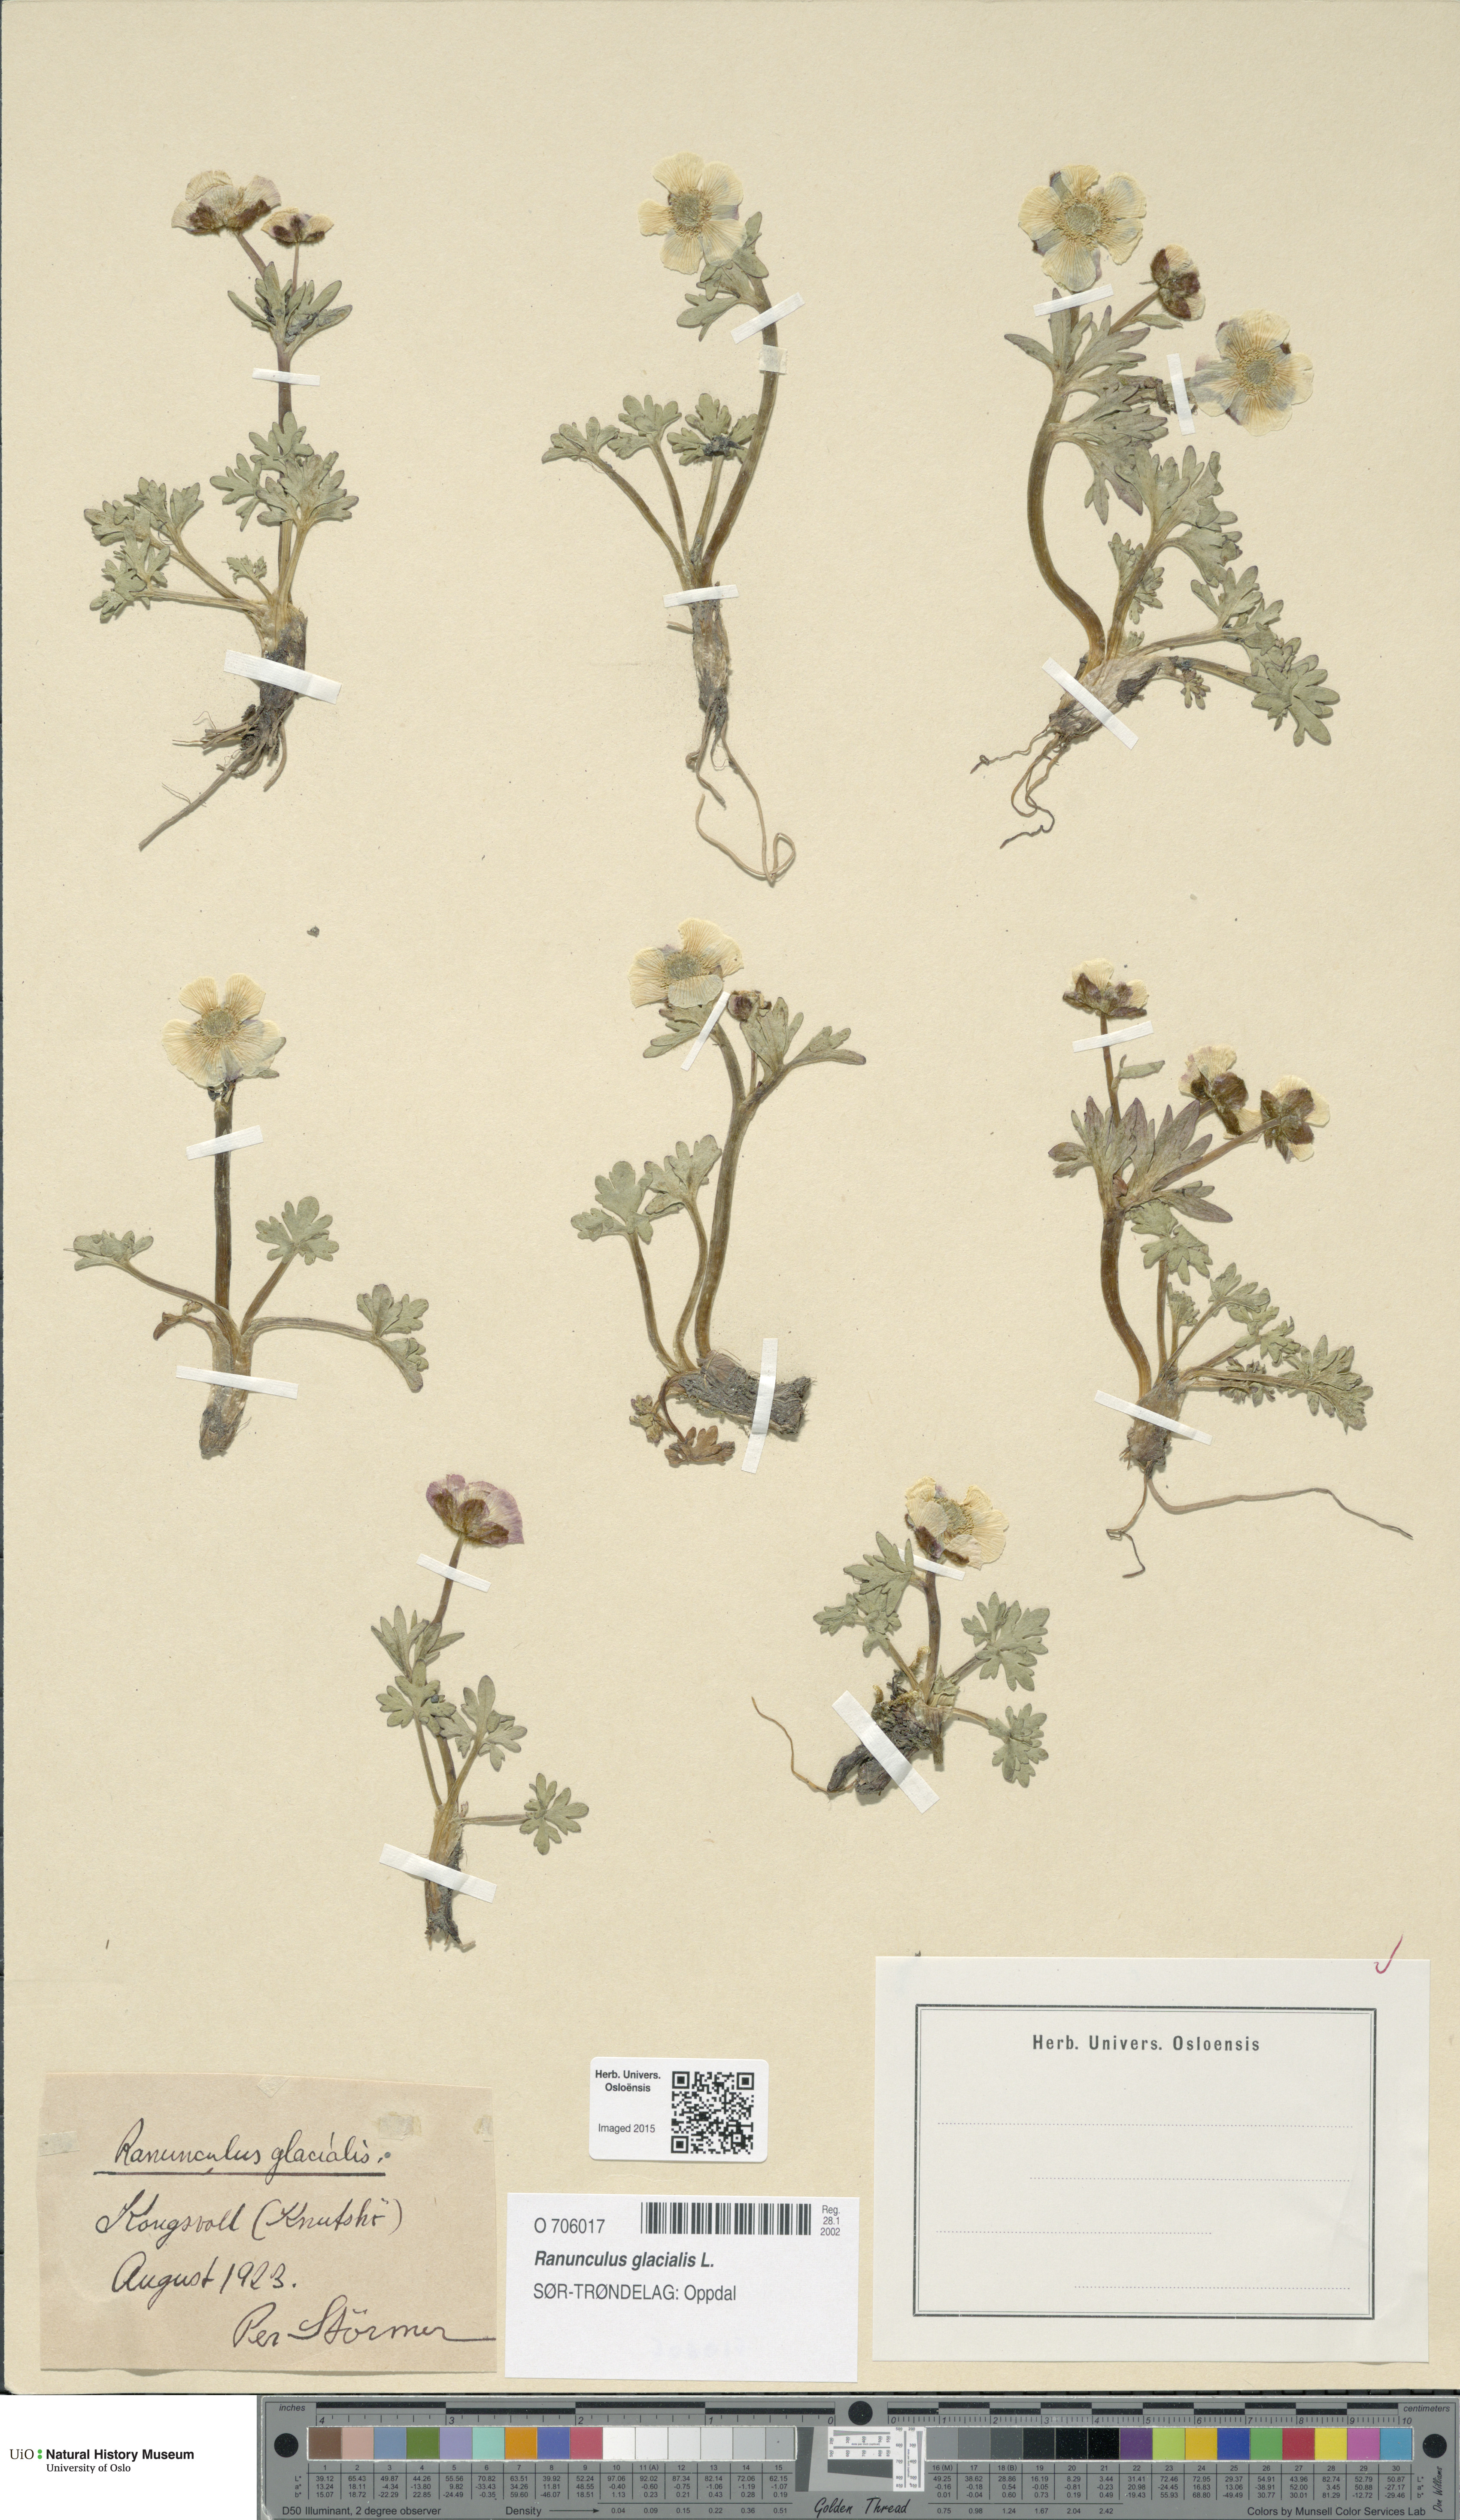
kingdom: Plantae
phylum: Tracheophyta
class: Magnoliopsida
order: Ranunculales
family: Ranunculaceae
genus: Ranunculus
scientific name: Ranunculus glacialis
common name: Glacier buttercup
